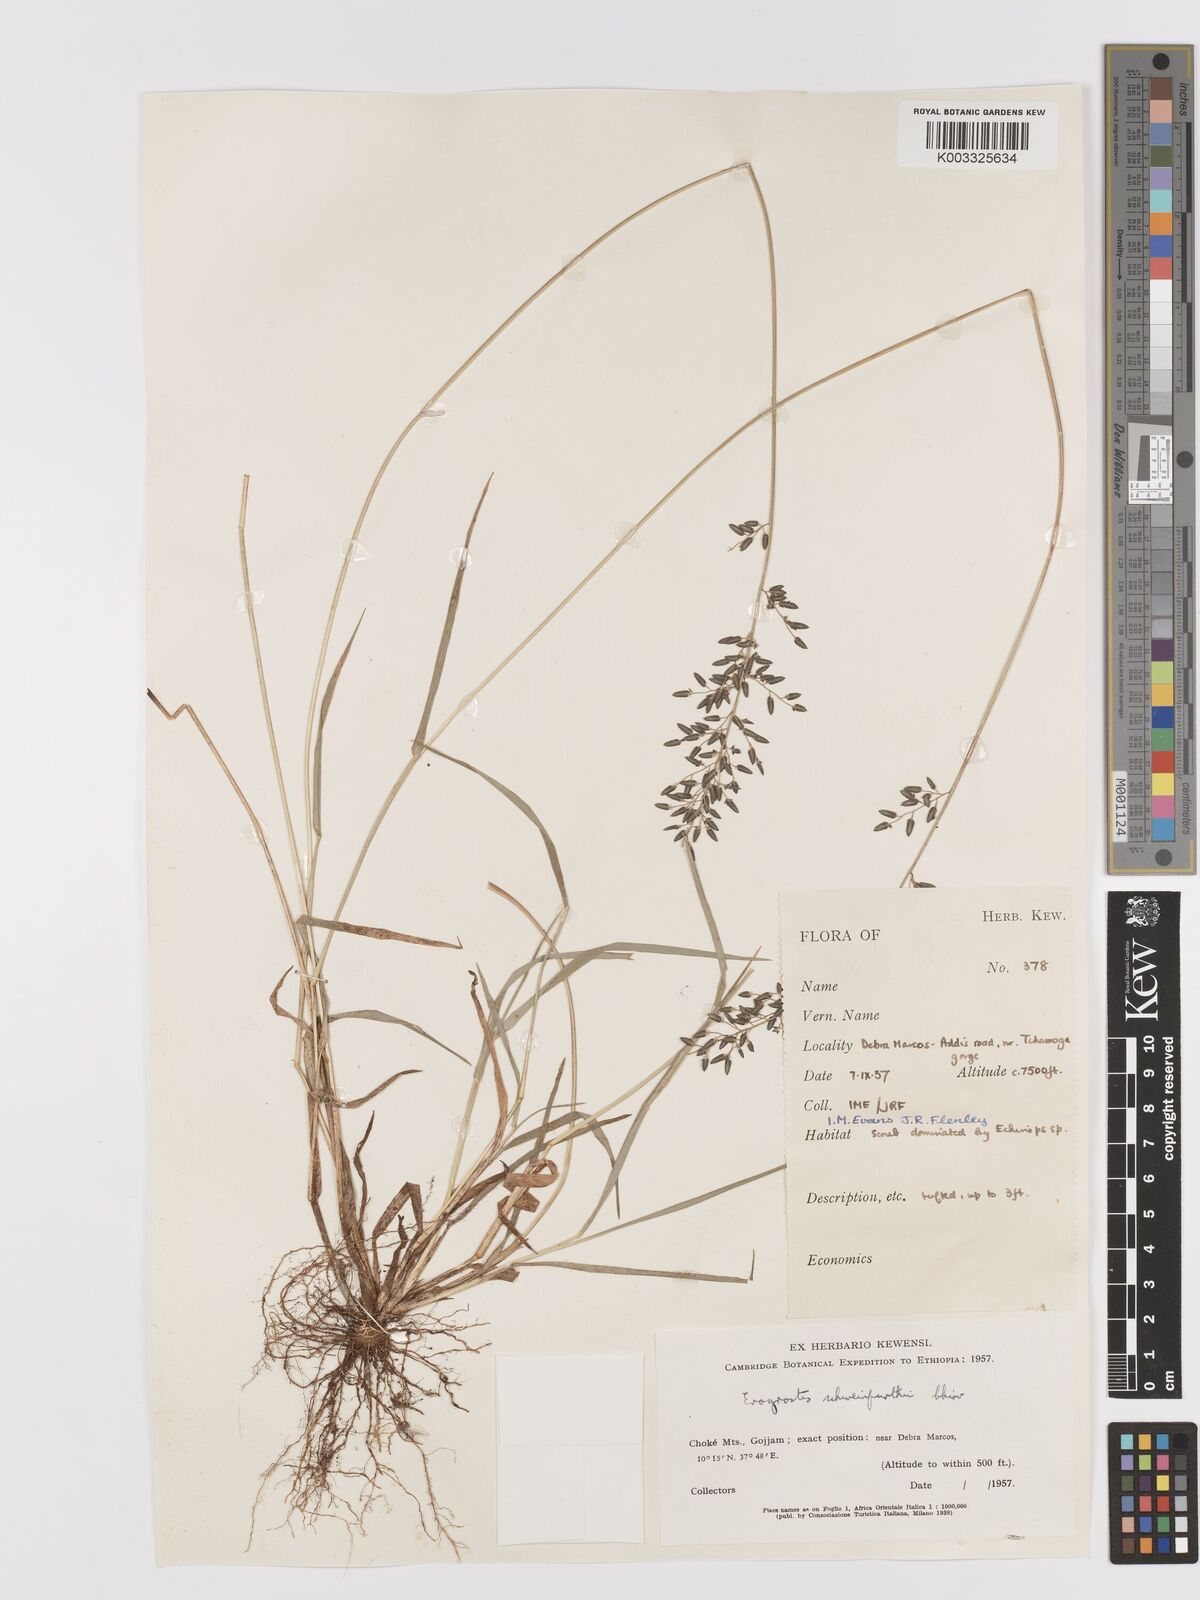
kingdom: Plantae
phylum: Tracheophyta
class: Liliopsida
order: Poales
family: Poaceae
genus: Eragrostis
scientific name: Eragrostis schweinfurthii
